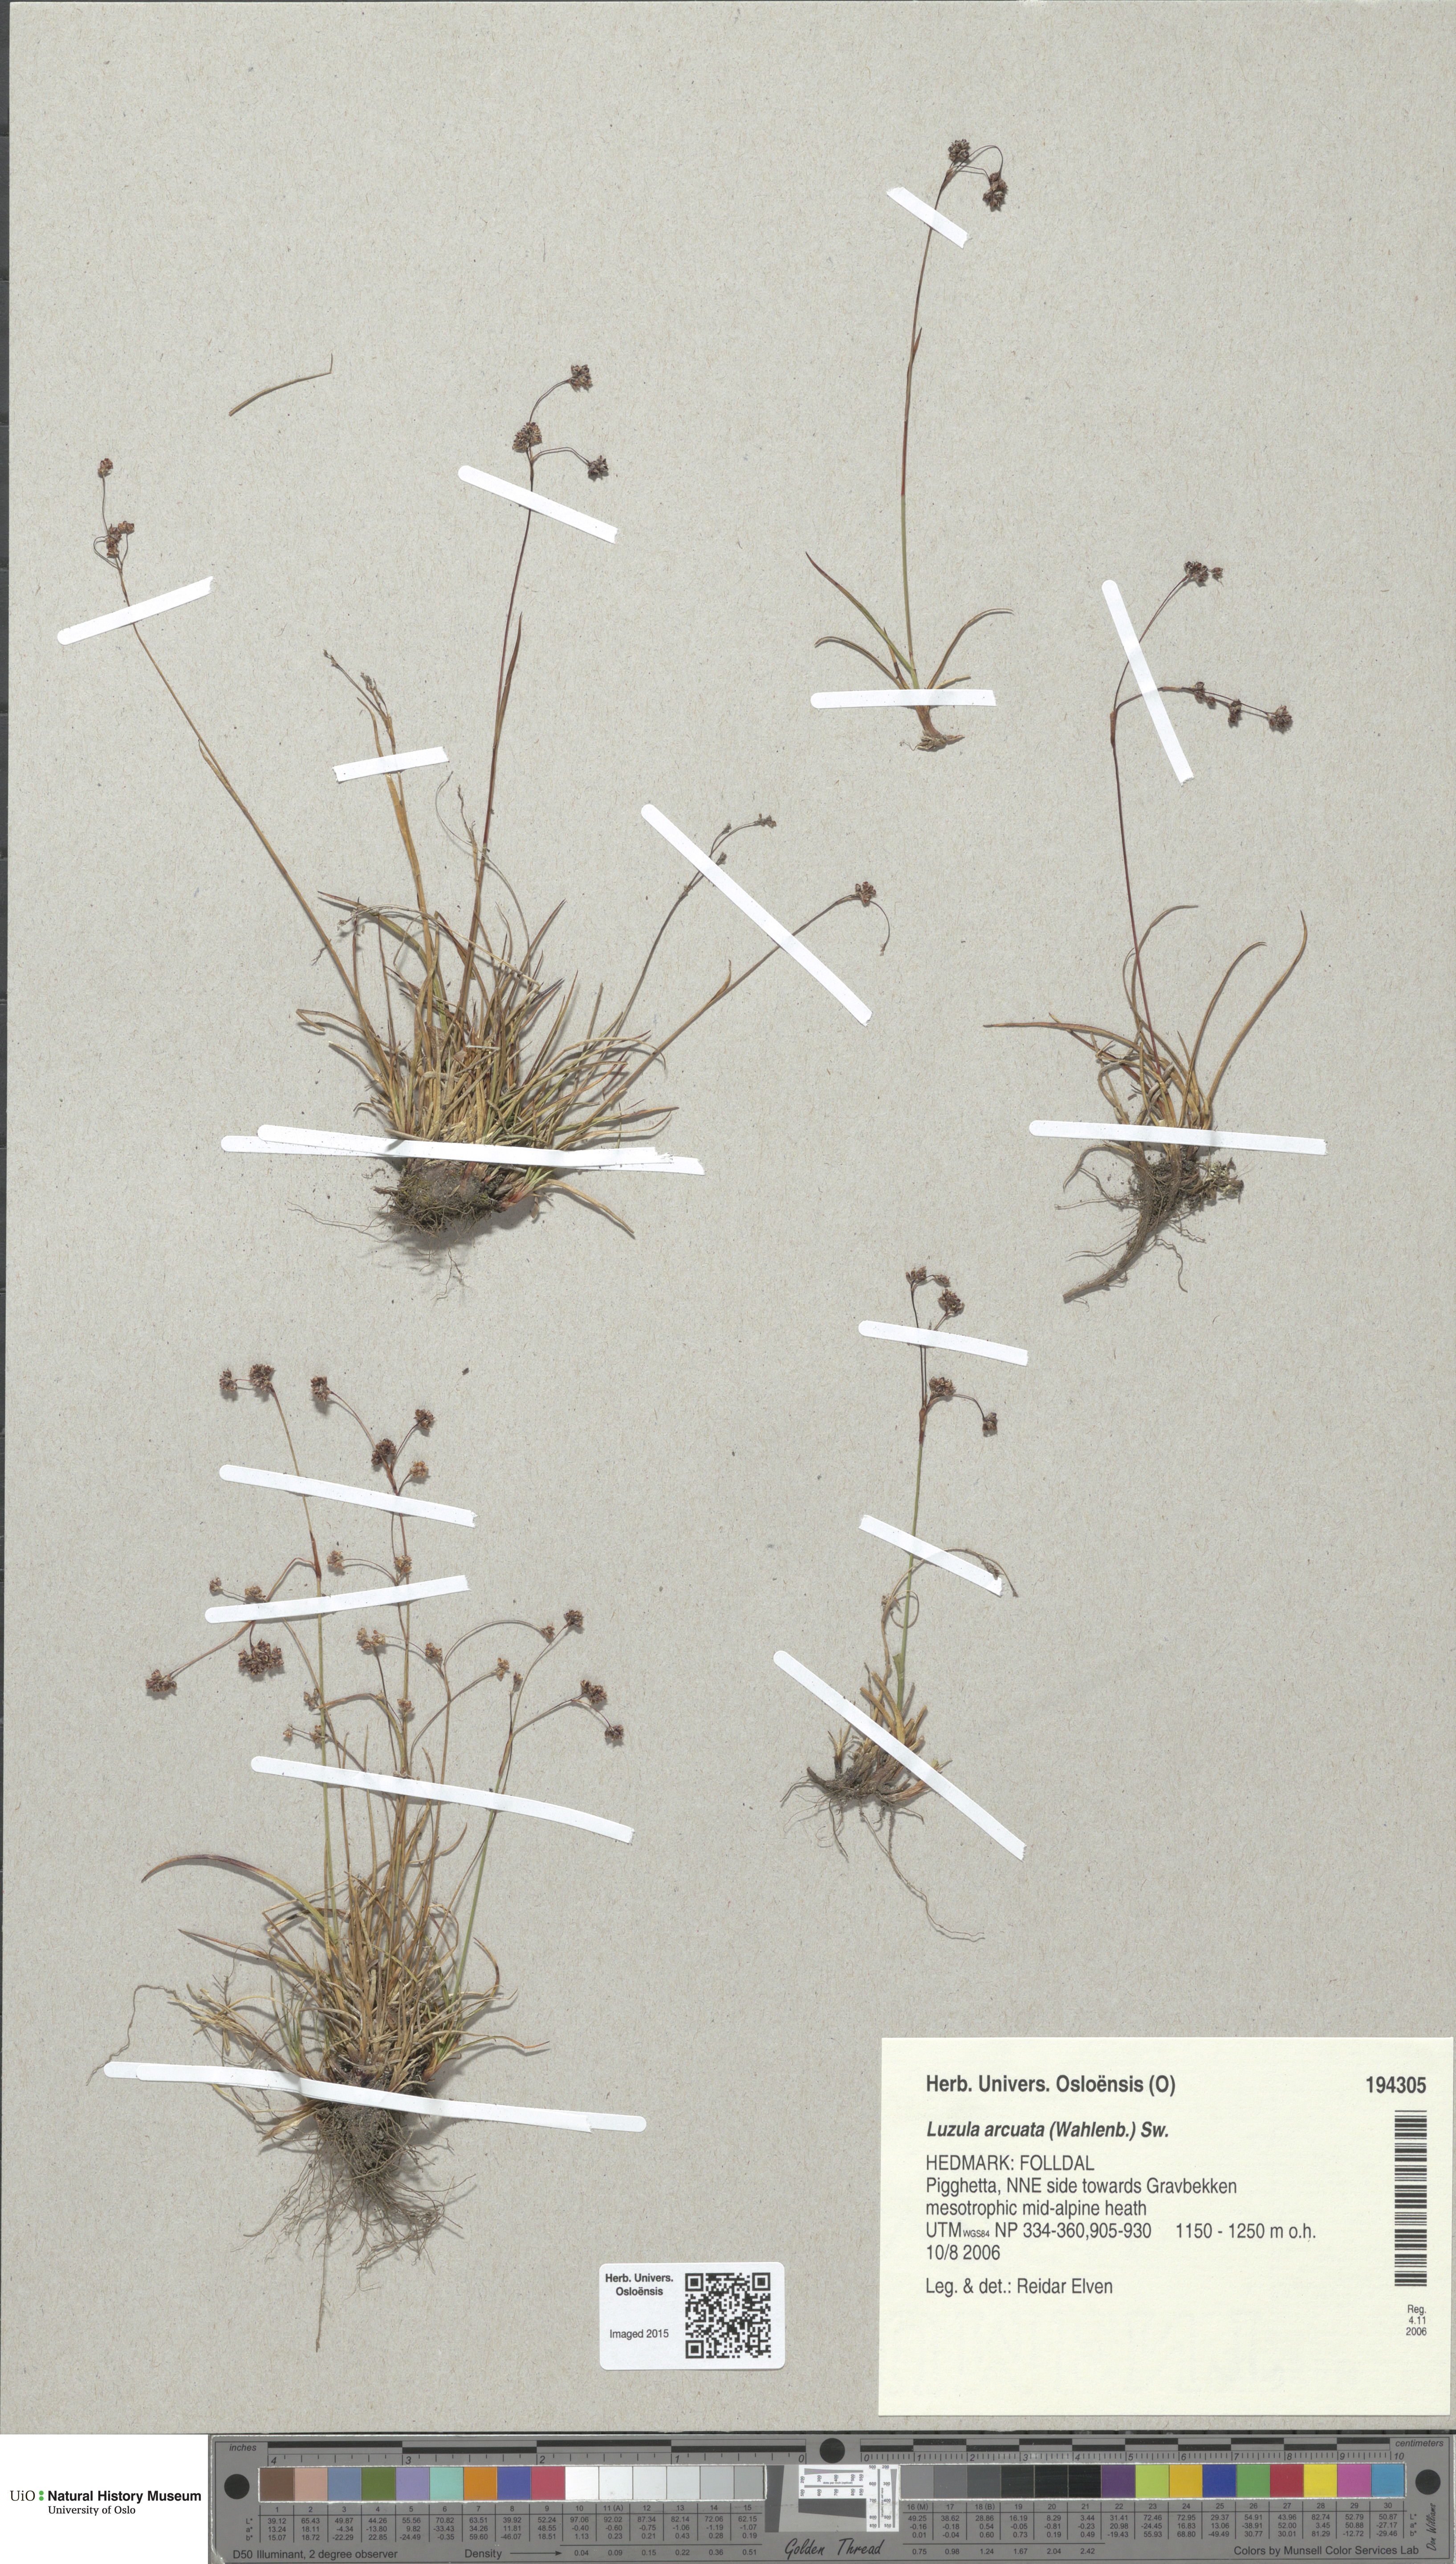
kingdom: Plantae
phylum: Tracheophyta
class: Liliopsida
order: Poales
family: Juncaceae
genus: Luzula
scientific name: Luzula arcuata
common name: Curved wood-rush
